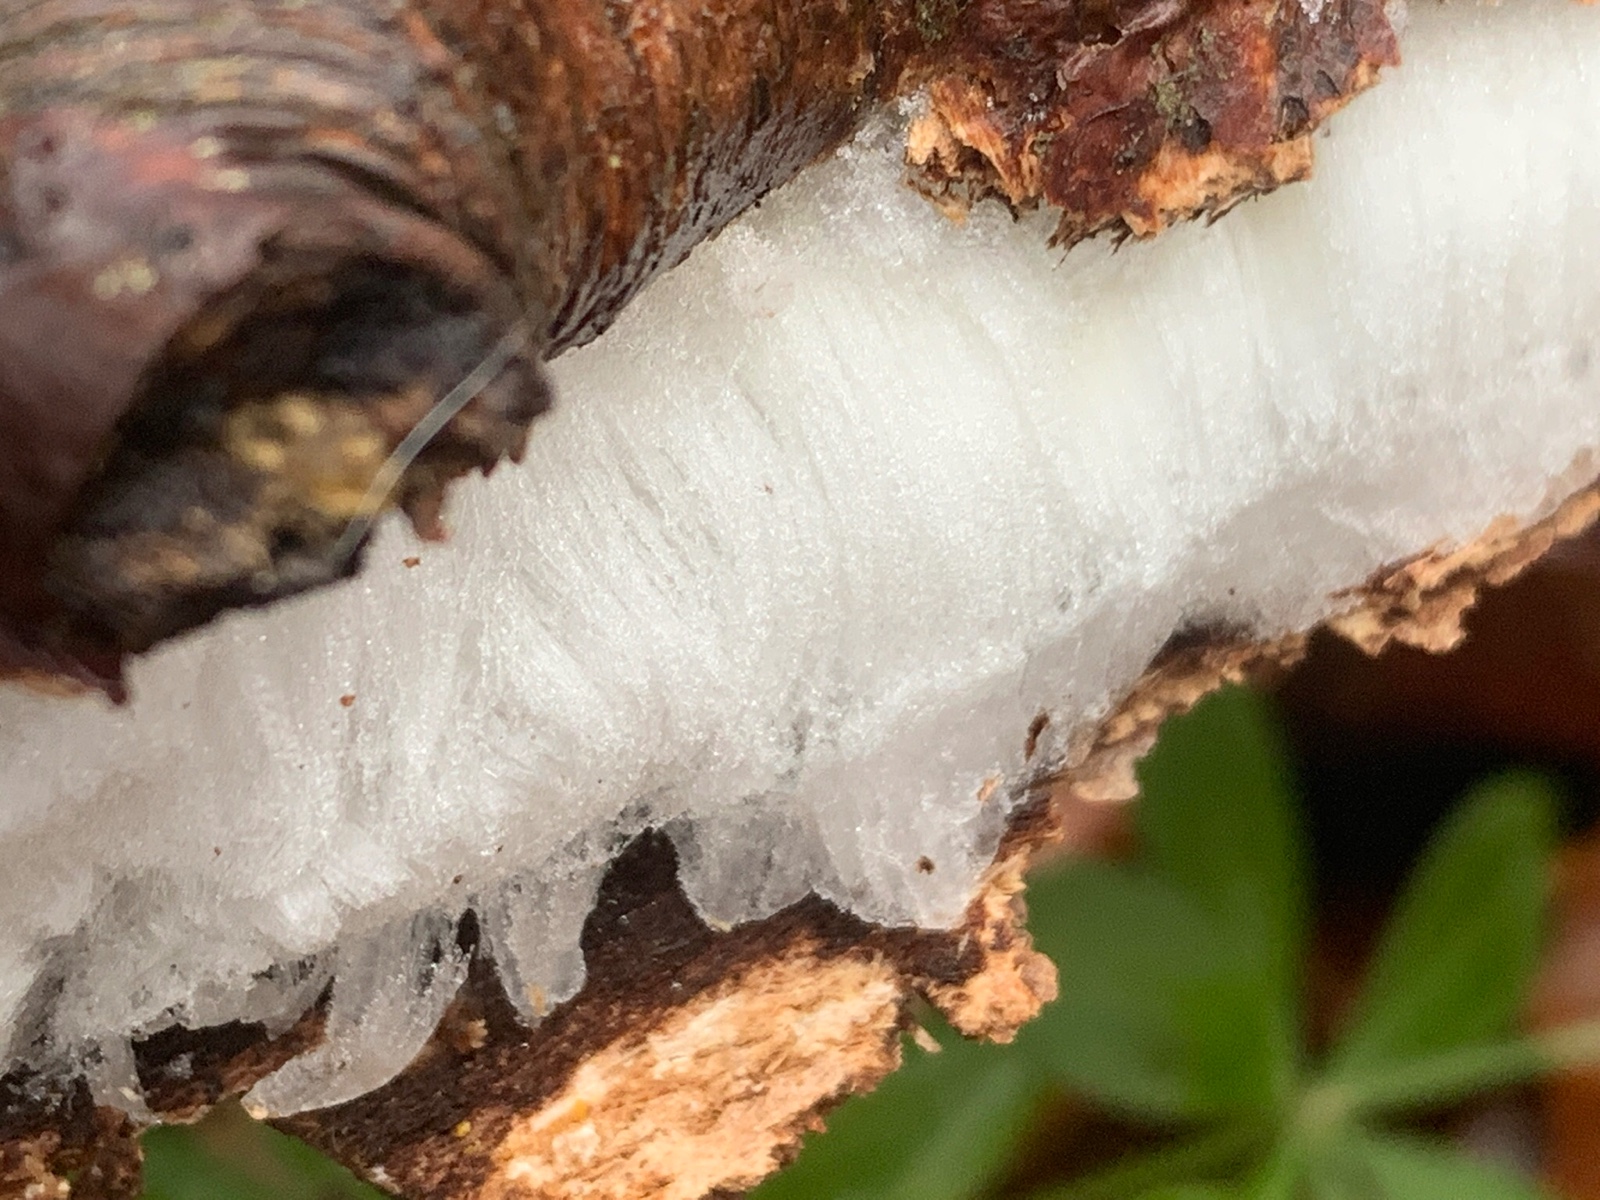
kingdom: Fungi
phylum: Basidiomycota
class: Tremellomycetes
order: Tremellales
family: Exidiaceae
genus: Exidiopsis
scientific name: Exidiopsis effusa
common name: smuk bævrehinde
